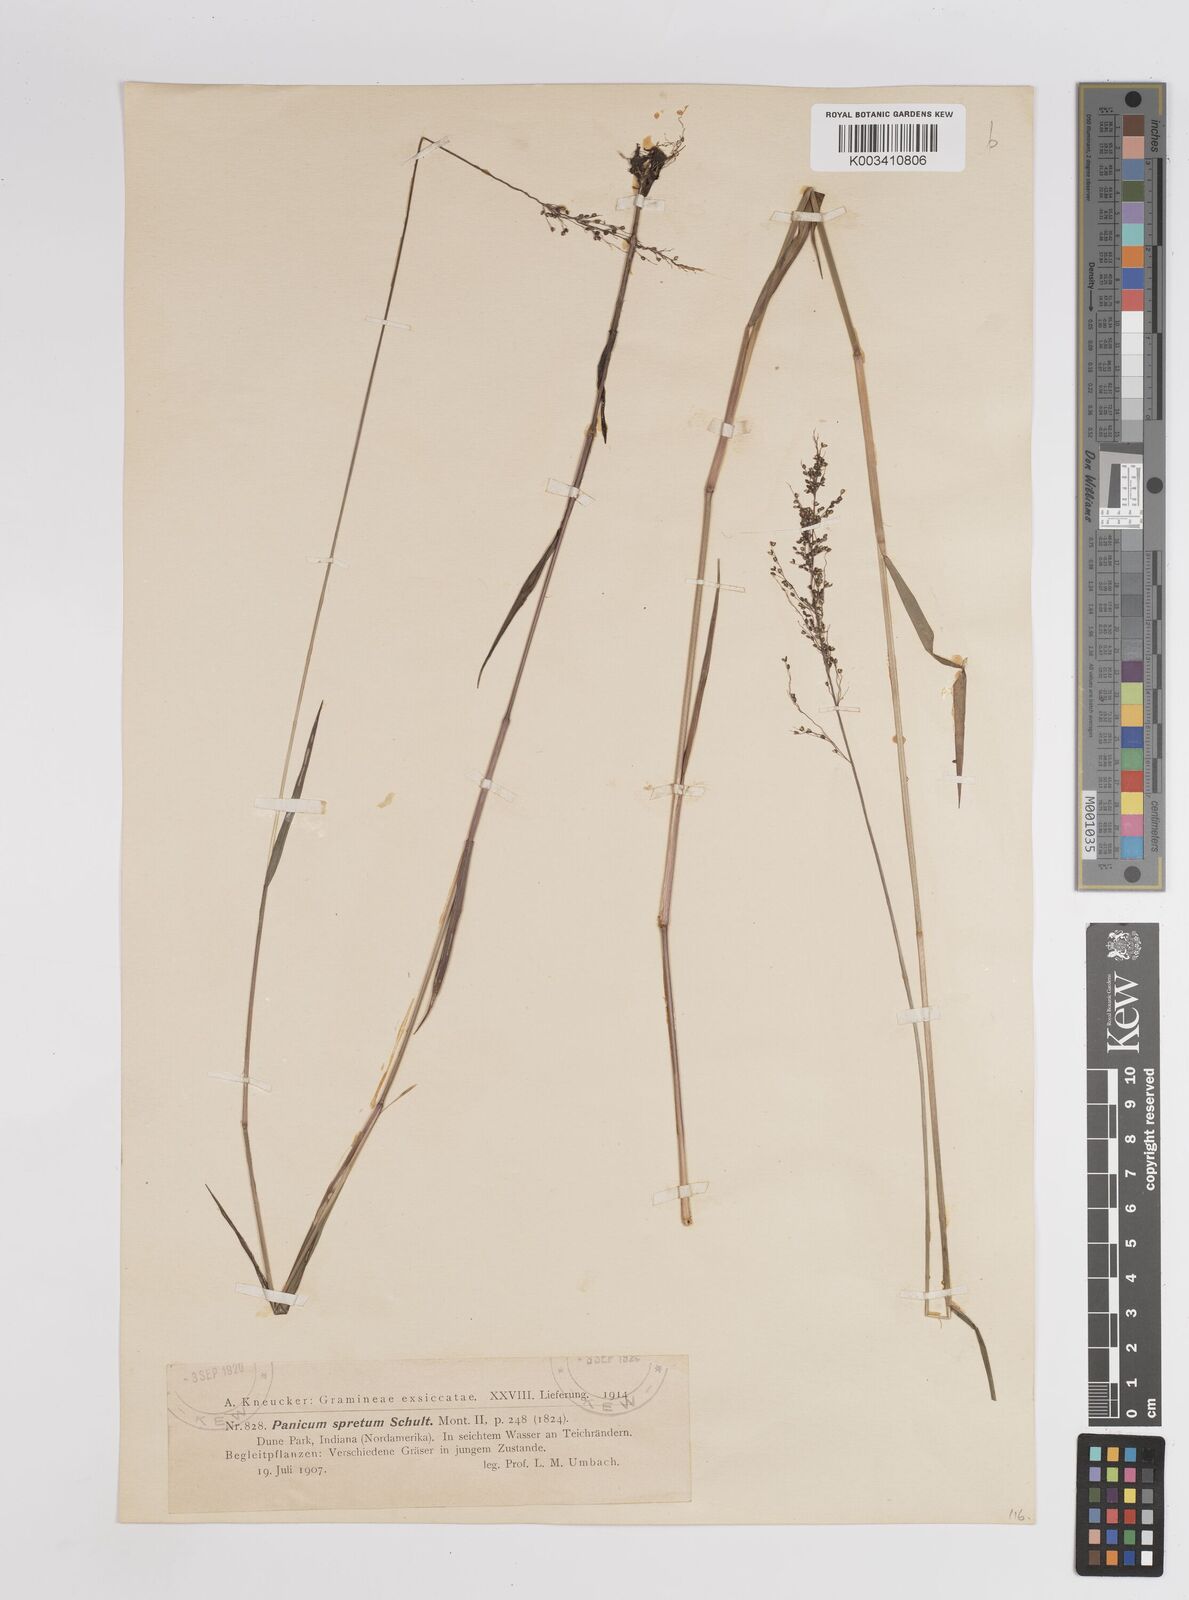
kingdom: Plantae
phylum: Tracheophyta
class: Liliopsida
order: Poales
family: Poaceae
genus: Dichanthelium
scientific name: Dichanthelium acuminatum
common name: Hairy panic grass
